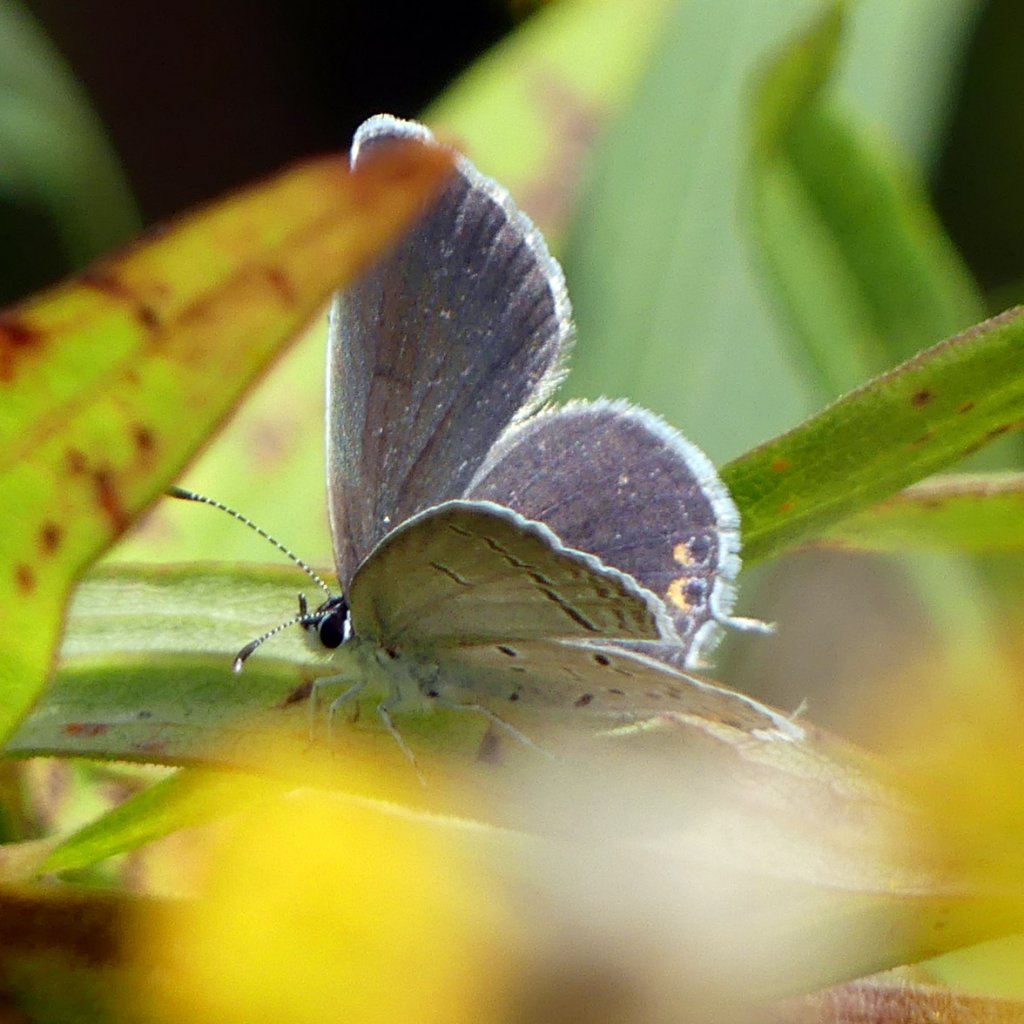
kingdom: Animalia
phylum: Arthropoda
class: Insecta
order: Lepidoptera
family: Lycaenidae
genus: Elkalyce
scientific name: Elkalyce comyntas
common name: Eastern Tailed-Blue
